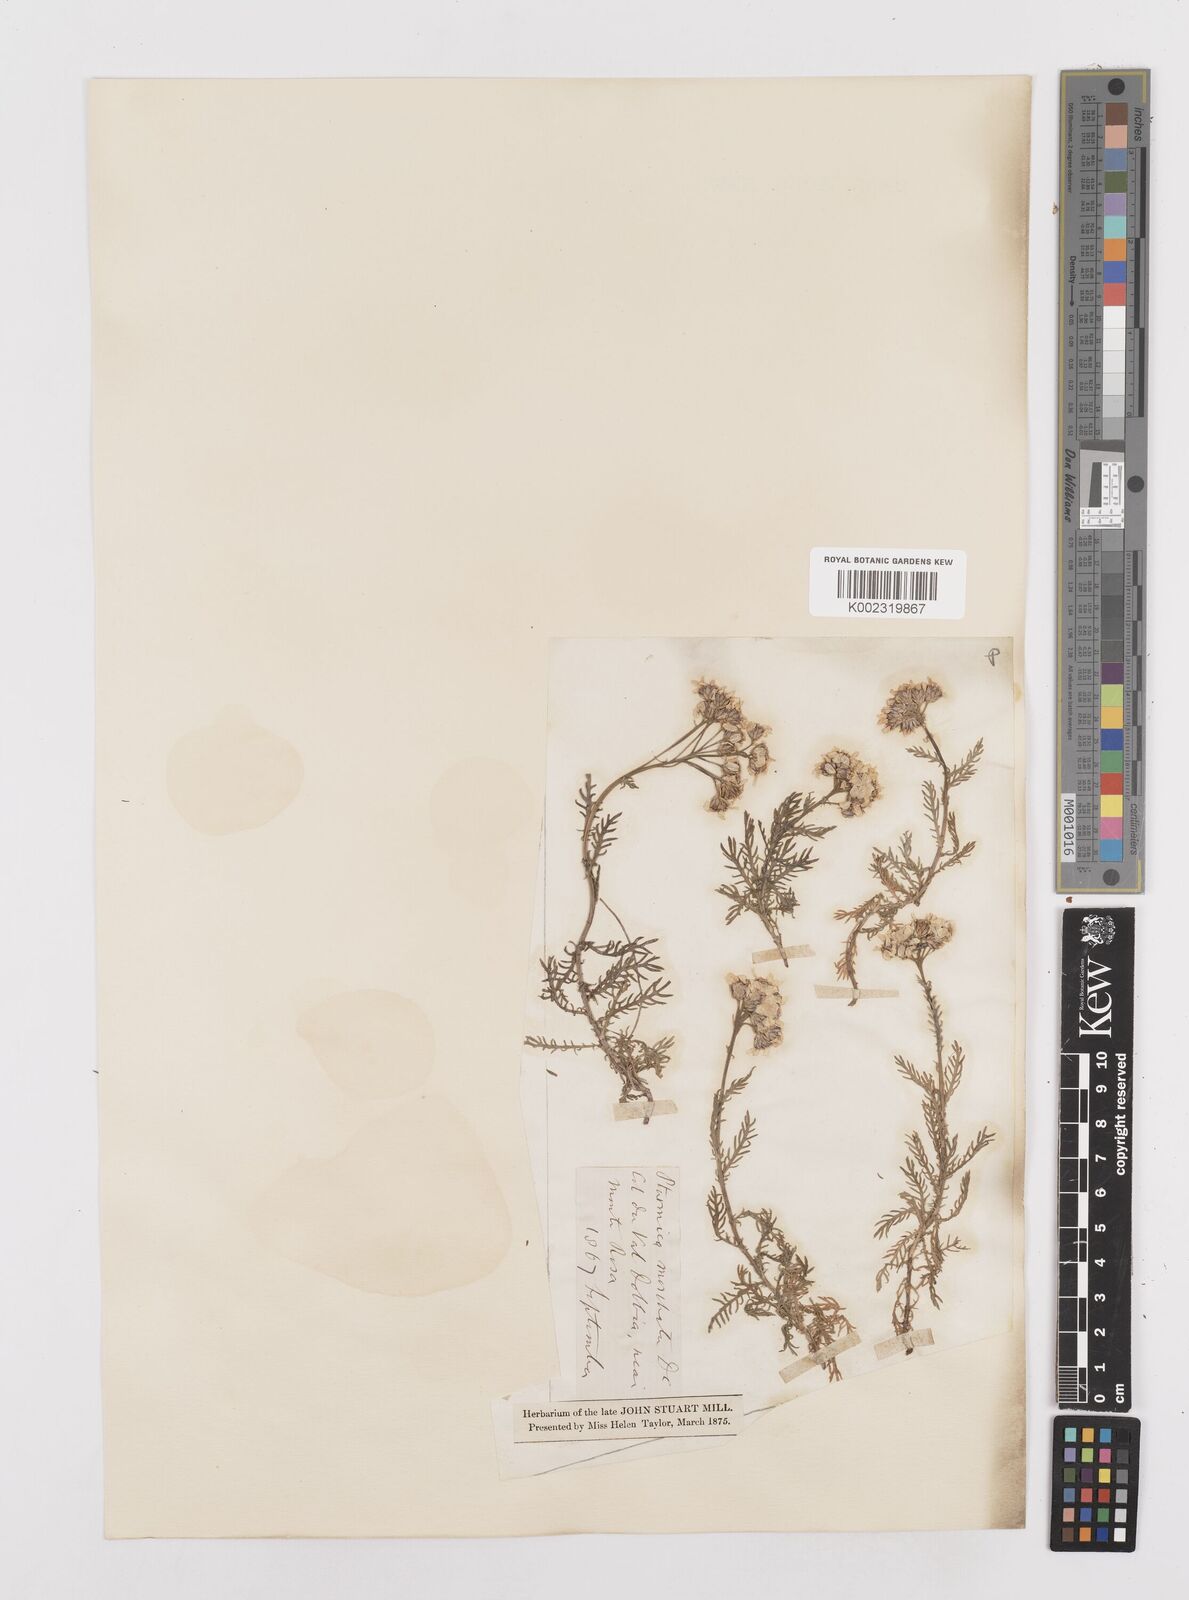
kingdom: Plantae
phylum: Tracheophyta
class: Magnoliopsida
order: Asterales
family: Asteraceae
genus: Achillea
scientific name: Achillea erba-rotta
